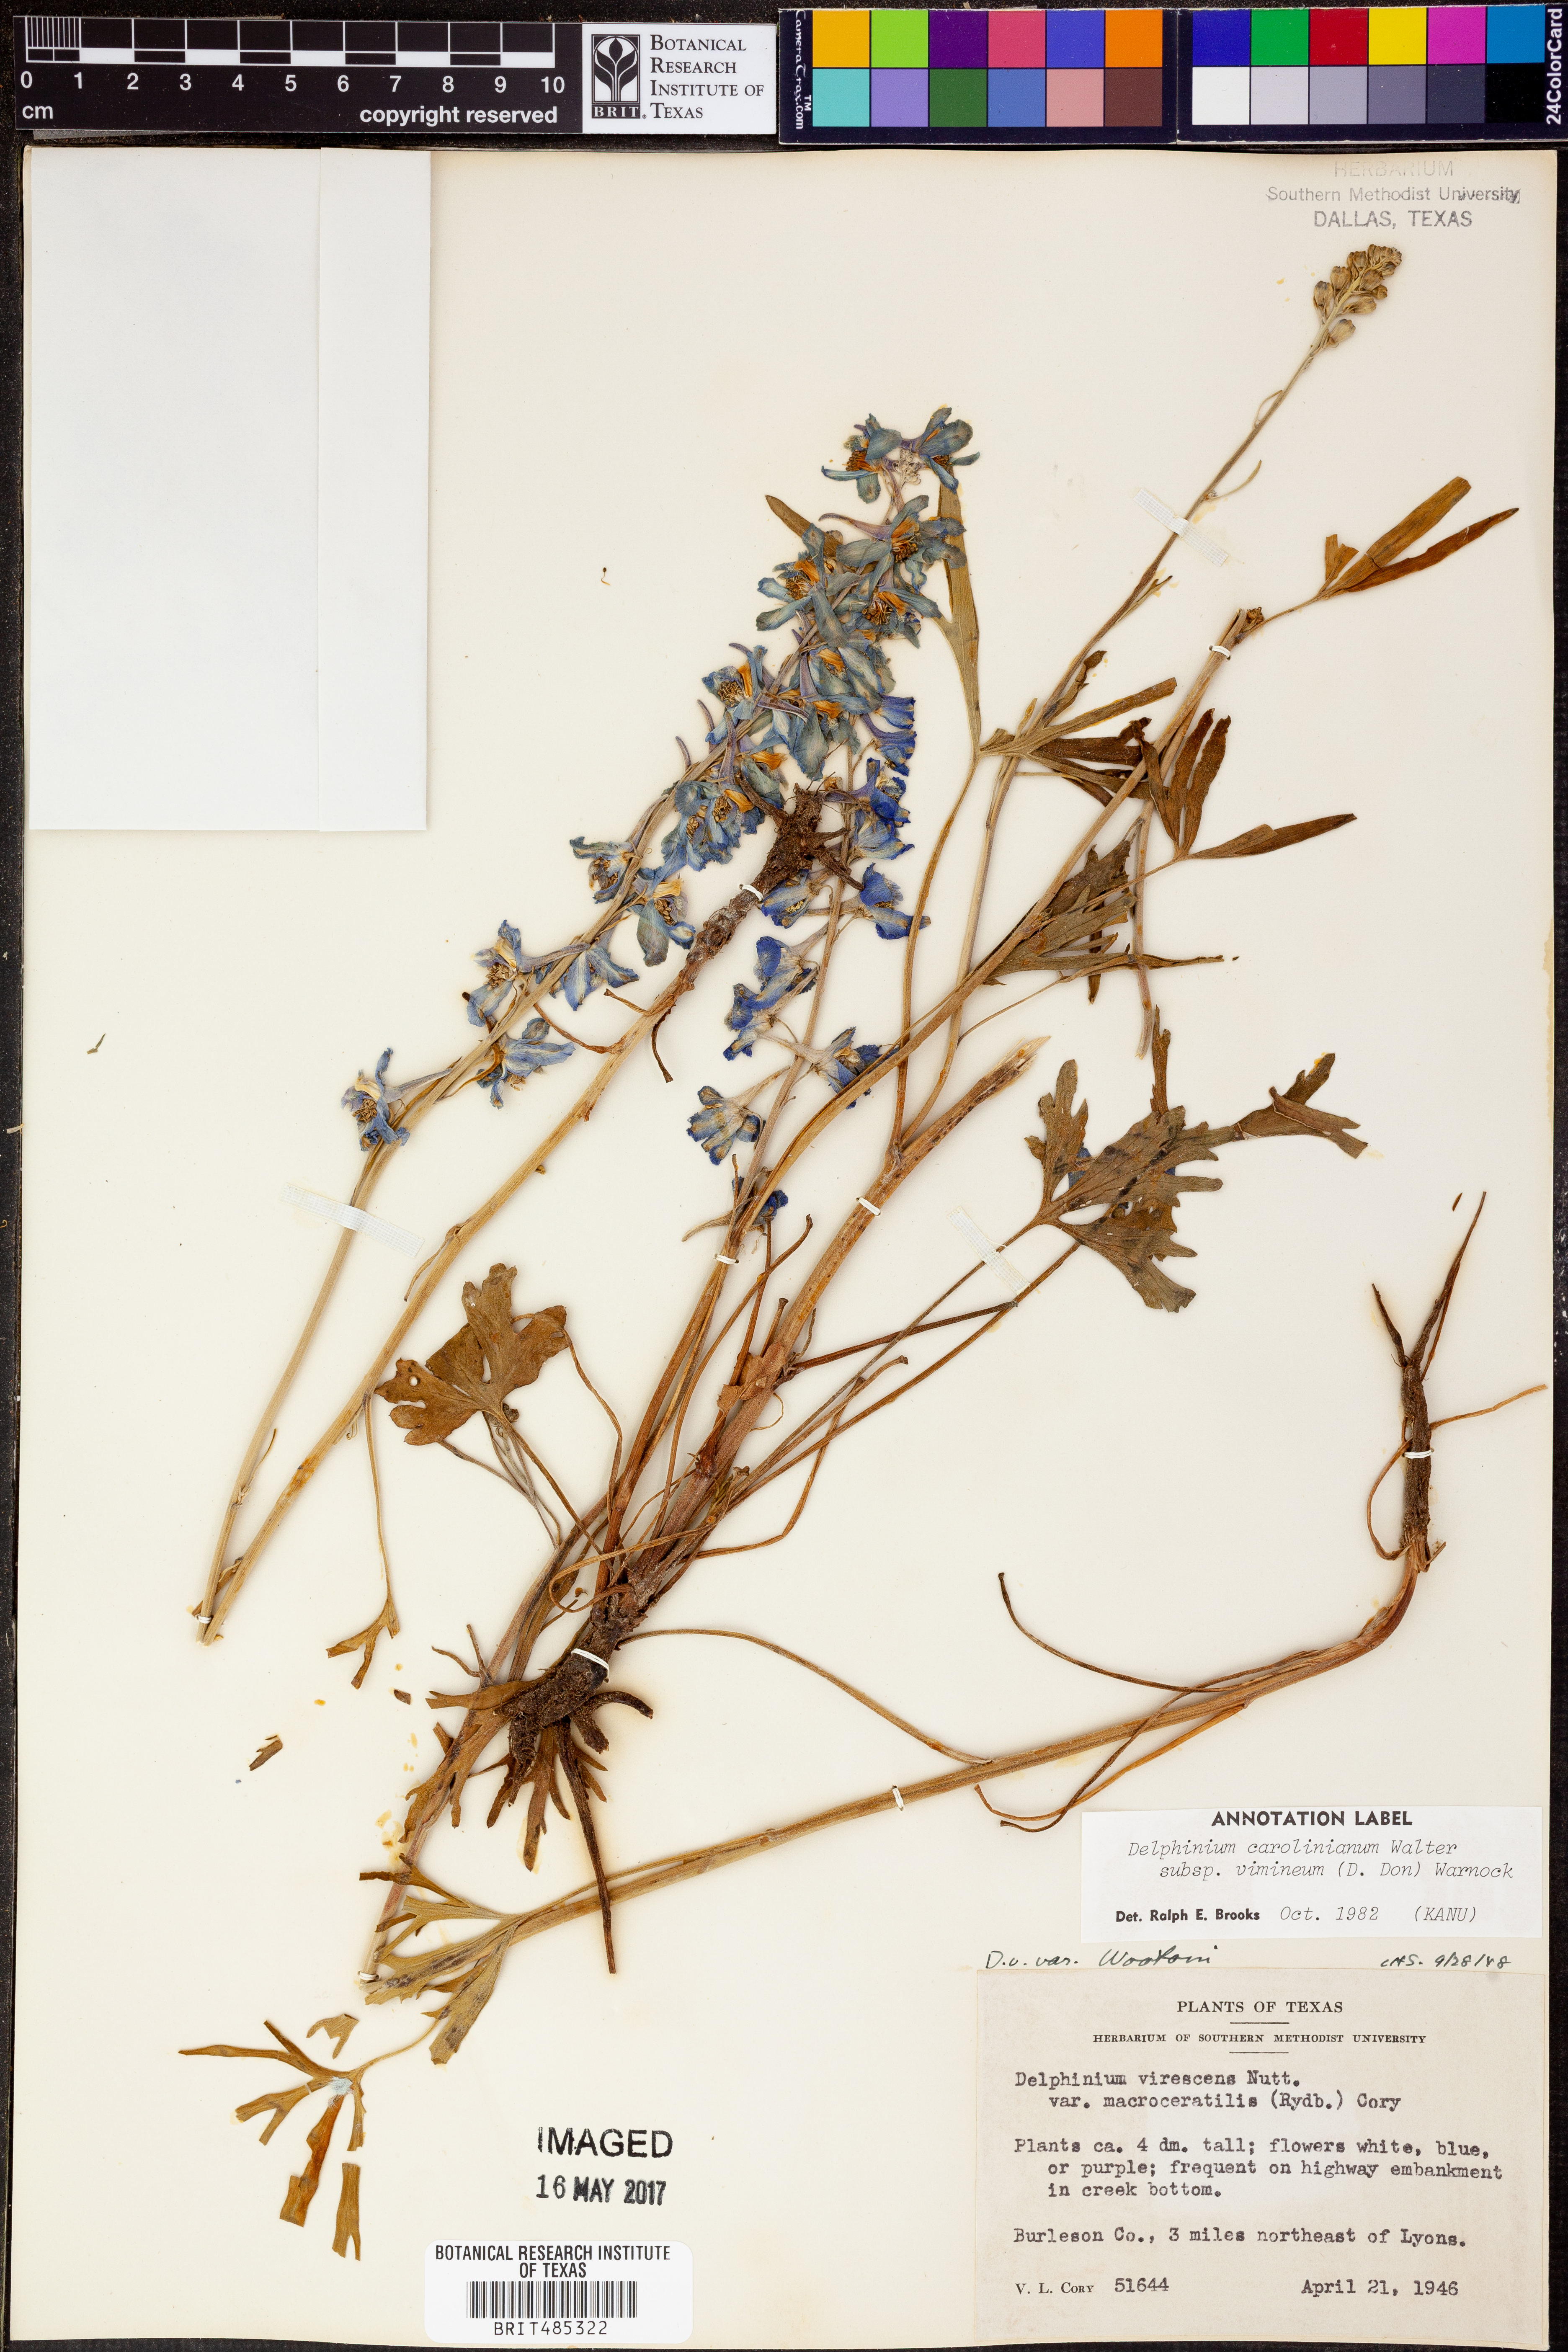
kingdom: Plantae
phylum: Tracheophyta
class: Magnoliopsida
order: Ranunculales
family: Ranunculaceae
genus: Delphinium
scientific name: Delphinium carolinianum
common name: Carolina larkspur
